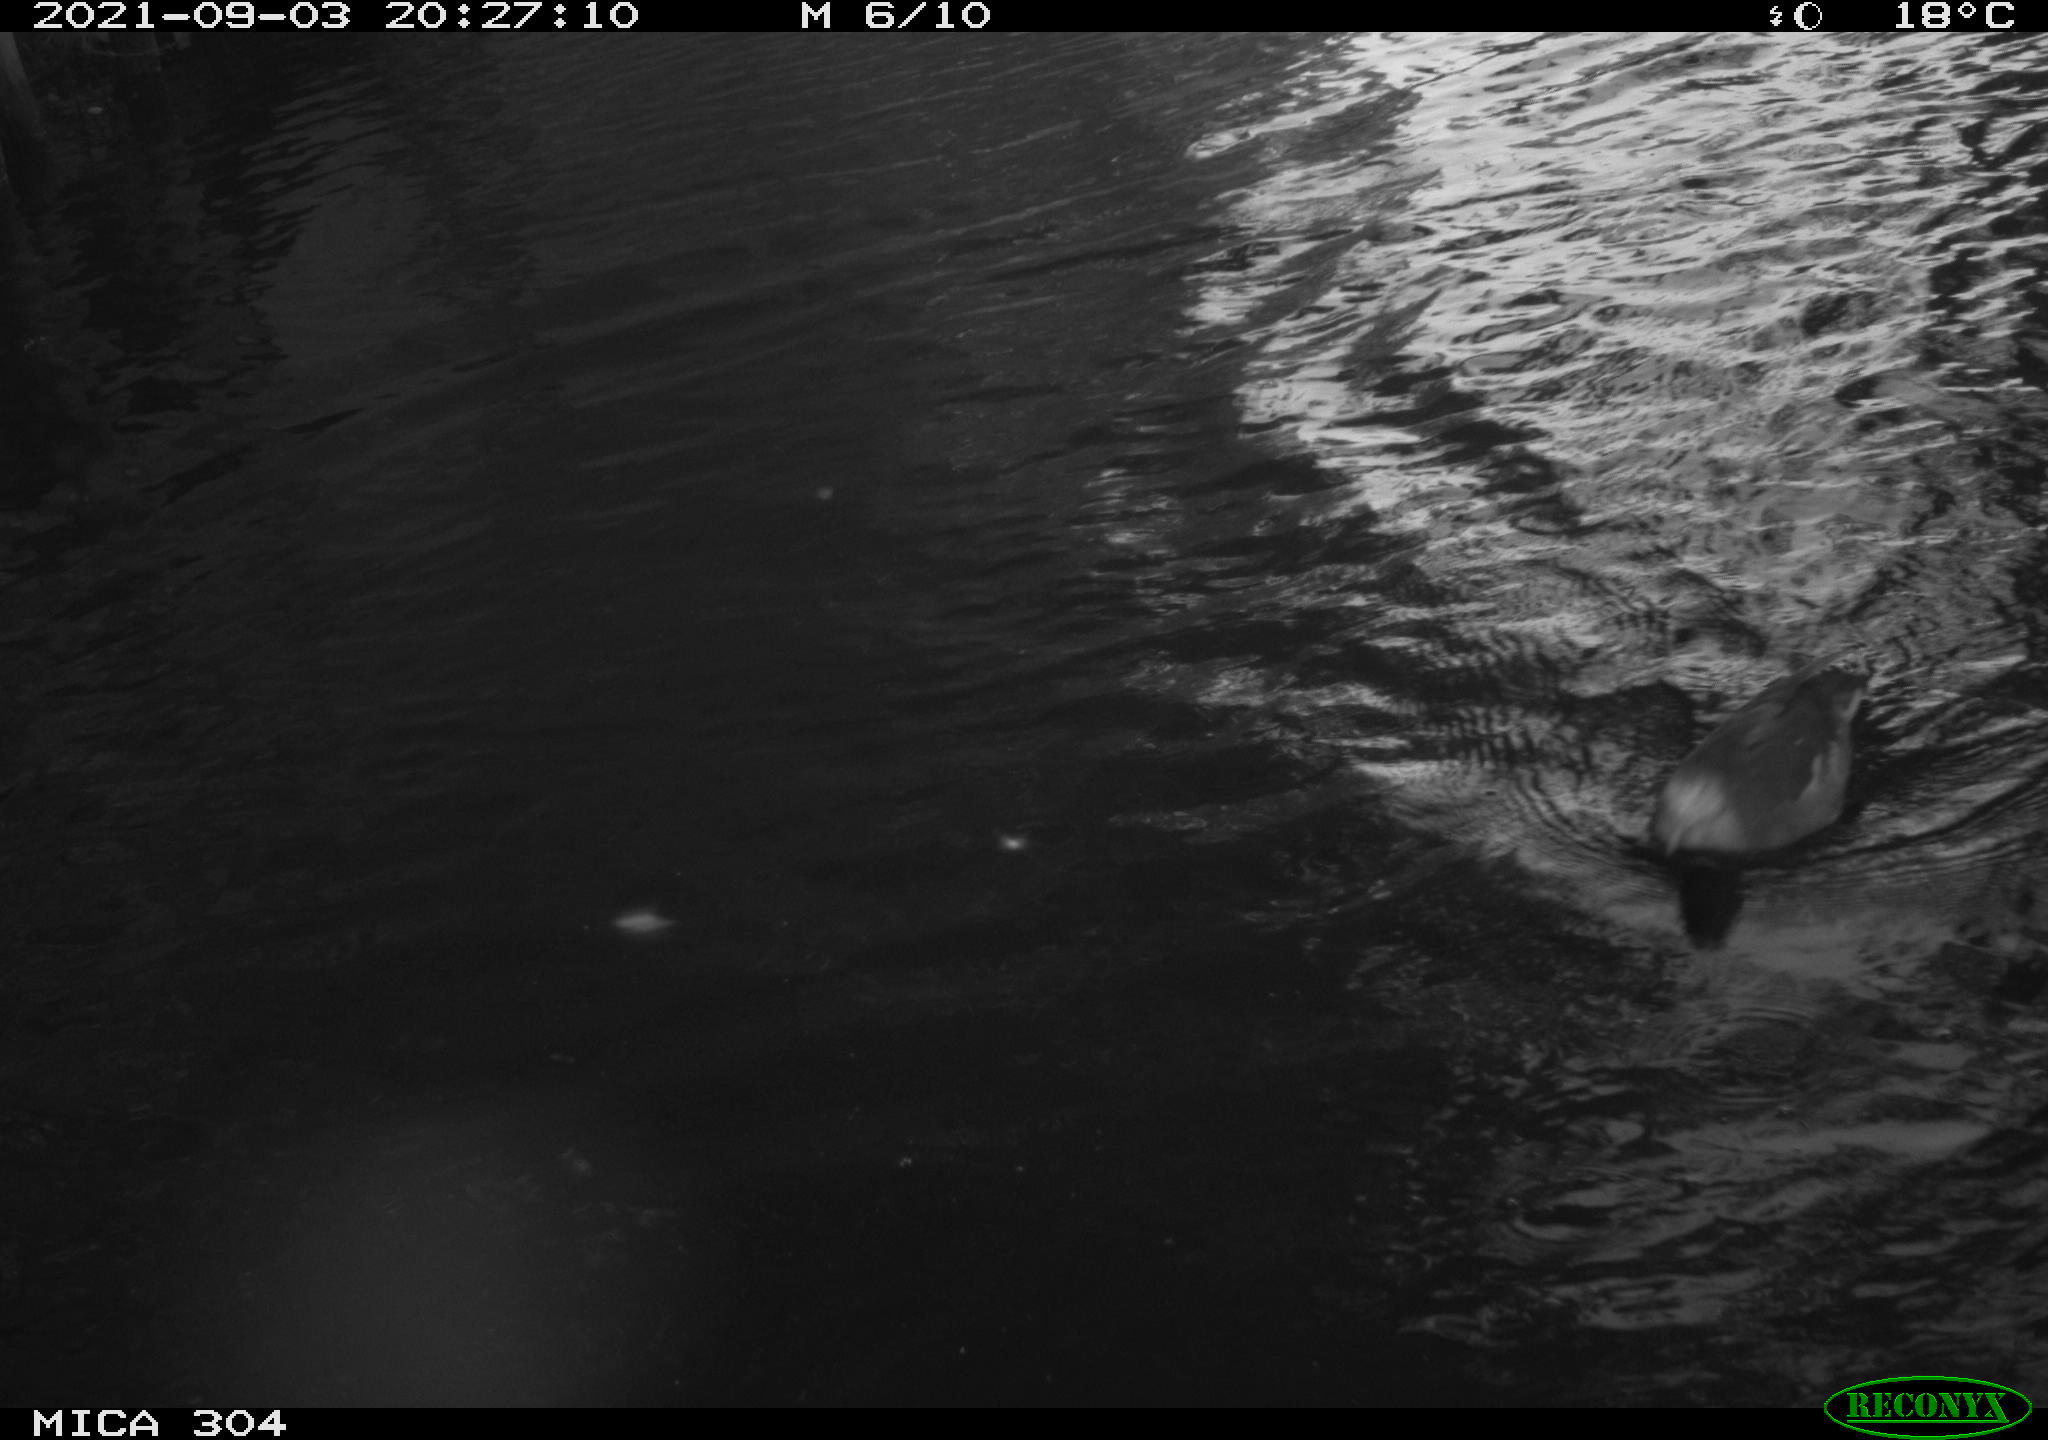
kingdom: Animalia
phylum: Chordata
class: Aves
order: Gruiformes
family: Rallidae
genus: Gallinula
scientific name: Gallinula chloropus
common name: Common moorhen
